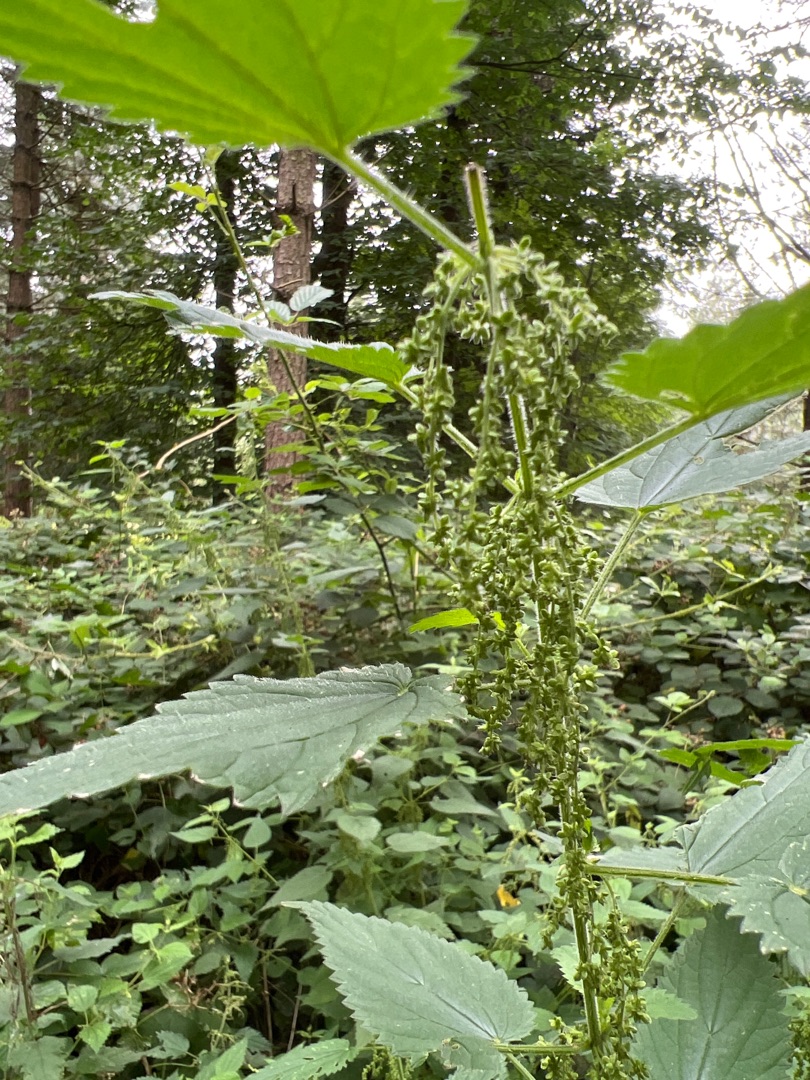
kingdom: Plantae
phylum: Tracheophyta
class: Magnoliopsida
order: Rosales
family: Urticaceae
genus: Urtica
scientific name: Urtica dioica
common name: Stor nælde
